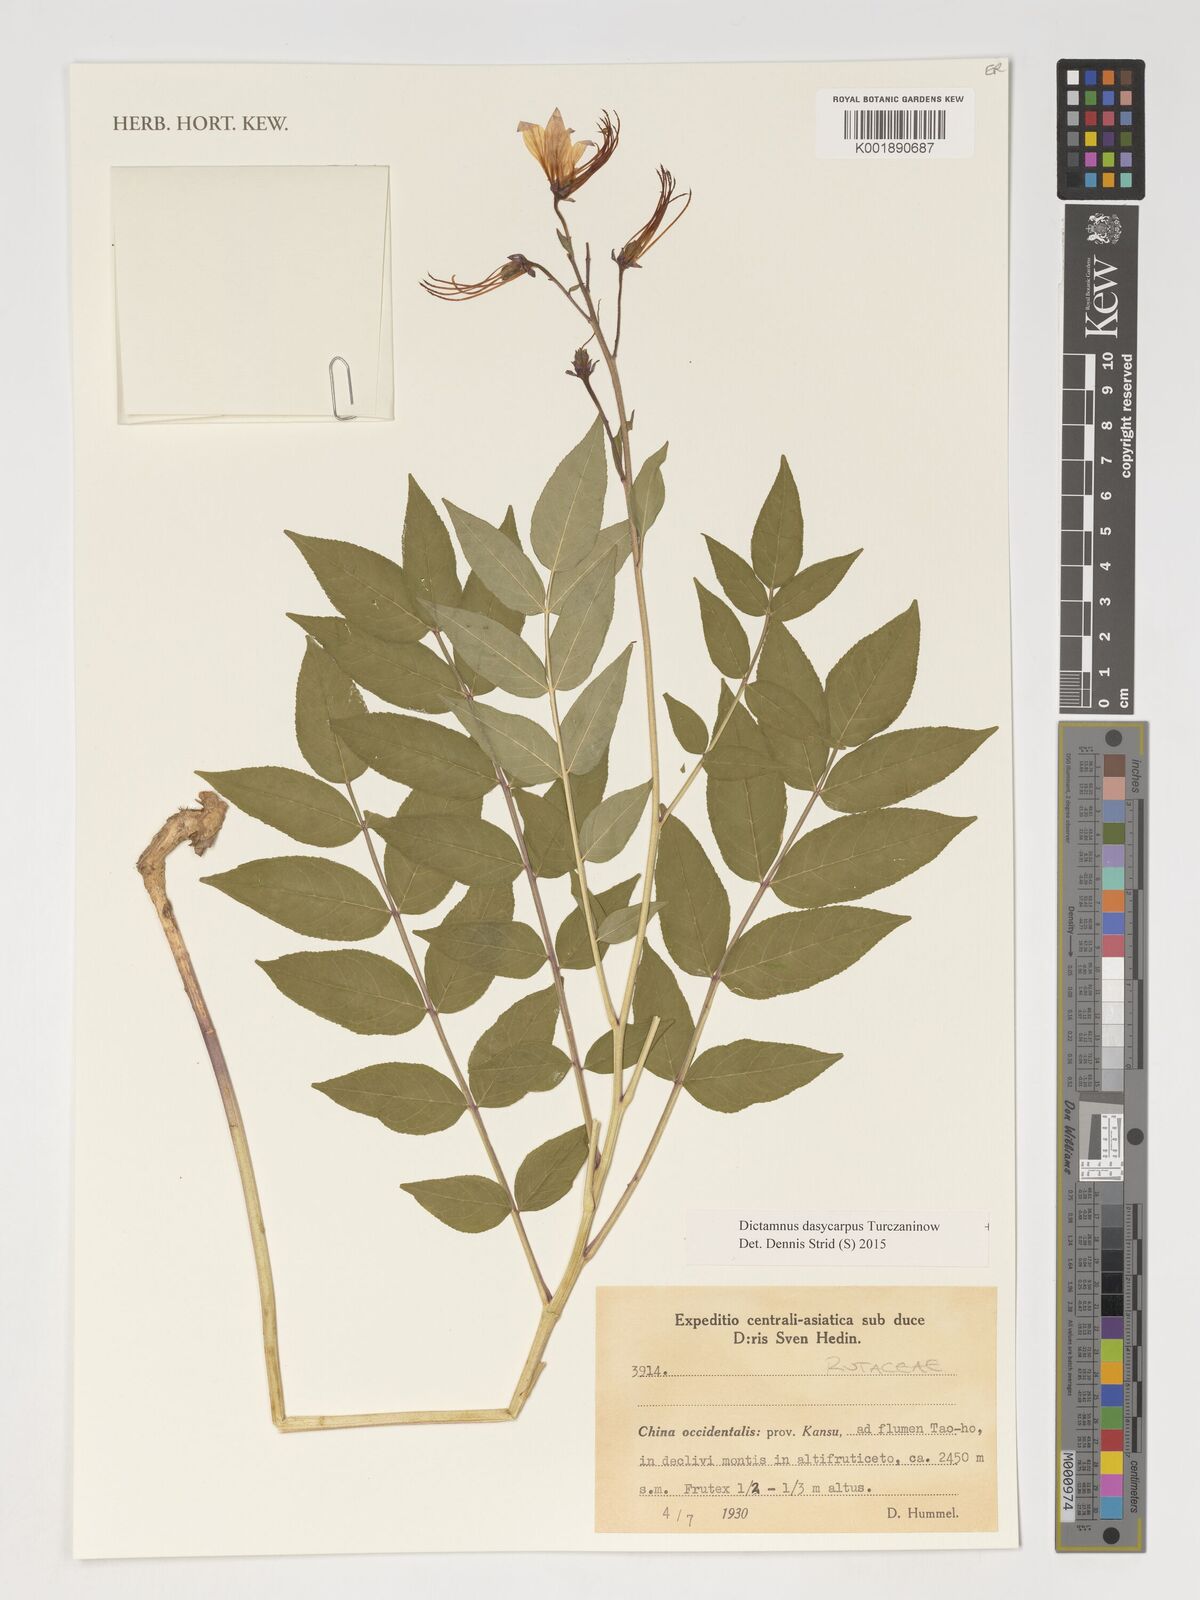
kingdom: Plantae
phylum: Tracheophyta
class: Magnoliopsida
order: Sapindales
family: Rutaceae
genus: Dictamnus
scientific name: Dictamnus dasycarpus
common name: Dense-fruit dittany
